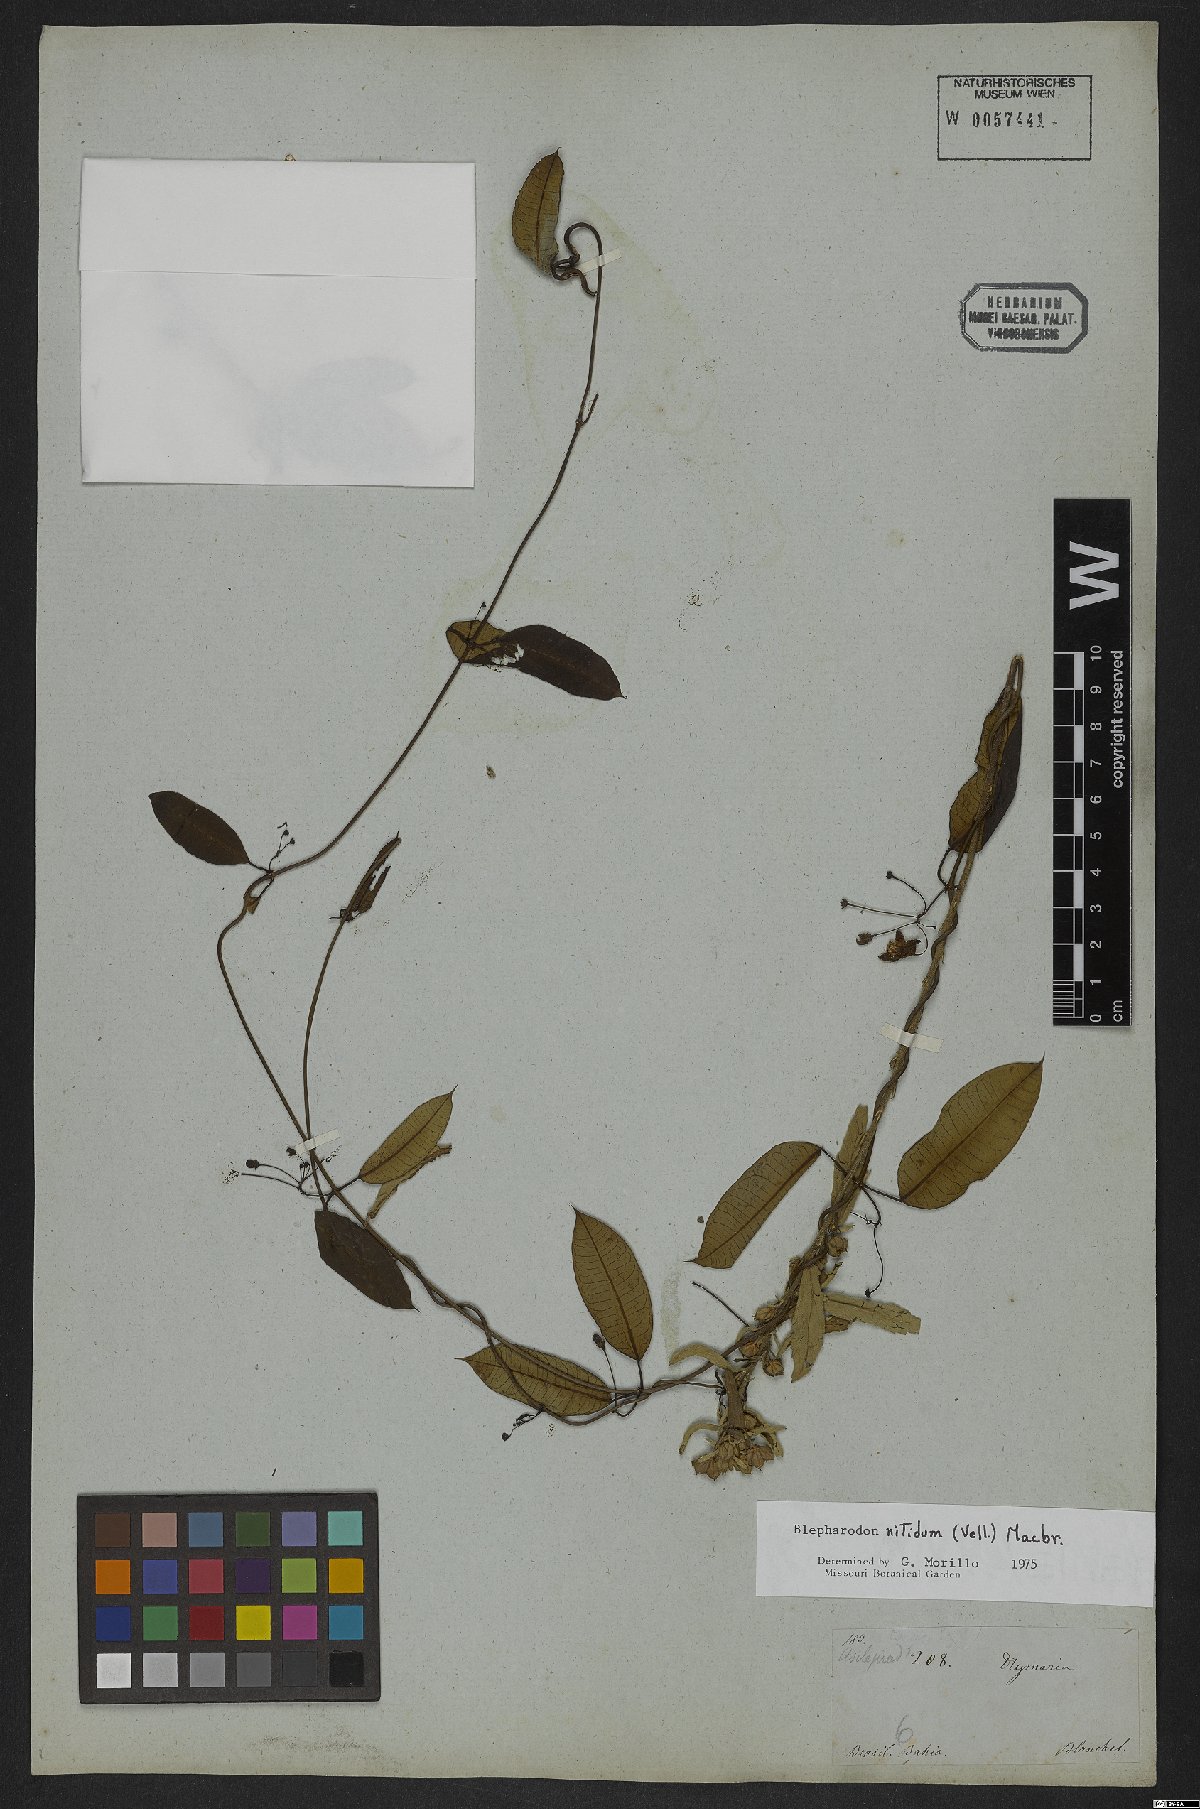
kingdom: Plantae
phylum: Tracheophyta
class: Magnoliopsida
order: Gentianales
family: Apocynaceae
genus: Blepharodon
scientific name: Blepharodon pictum
